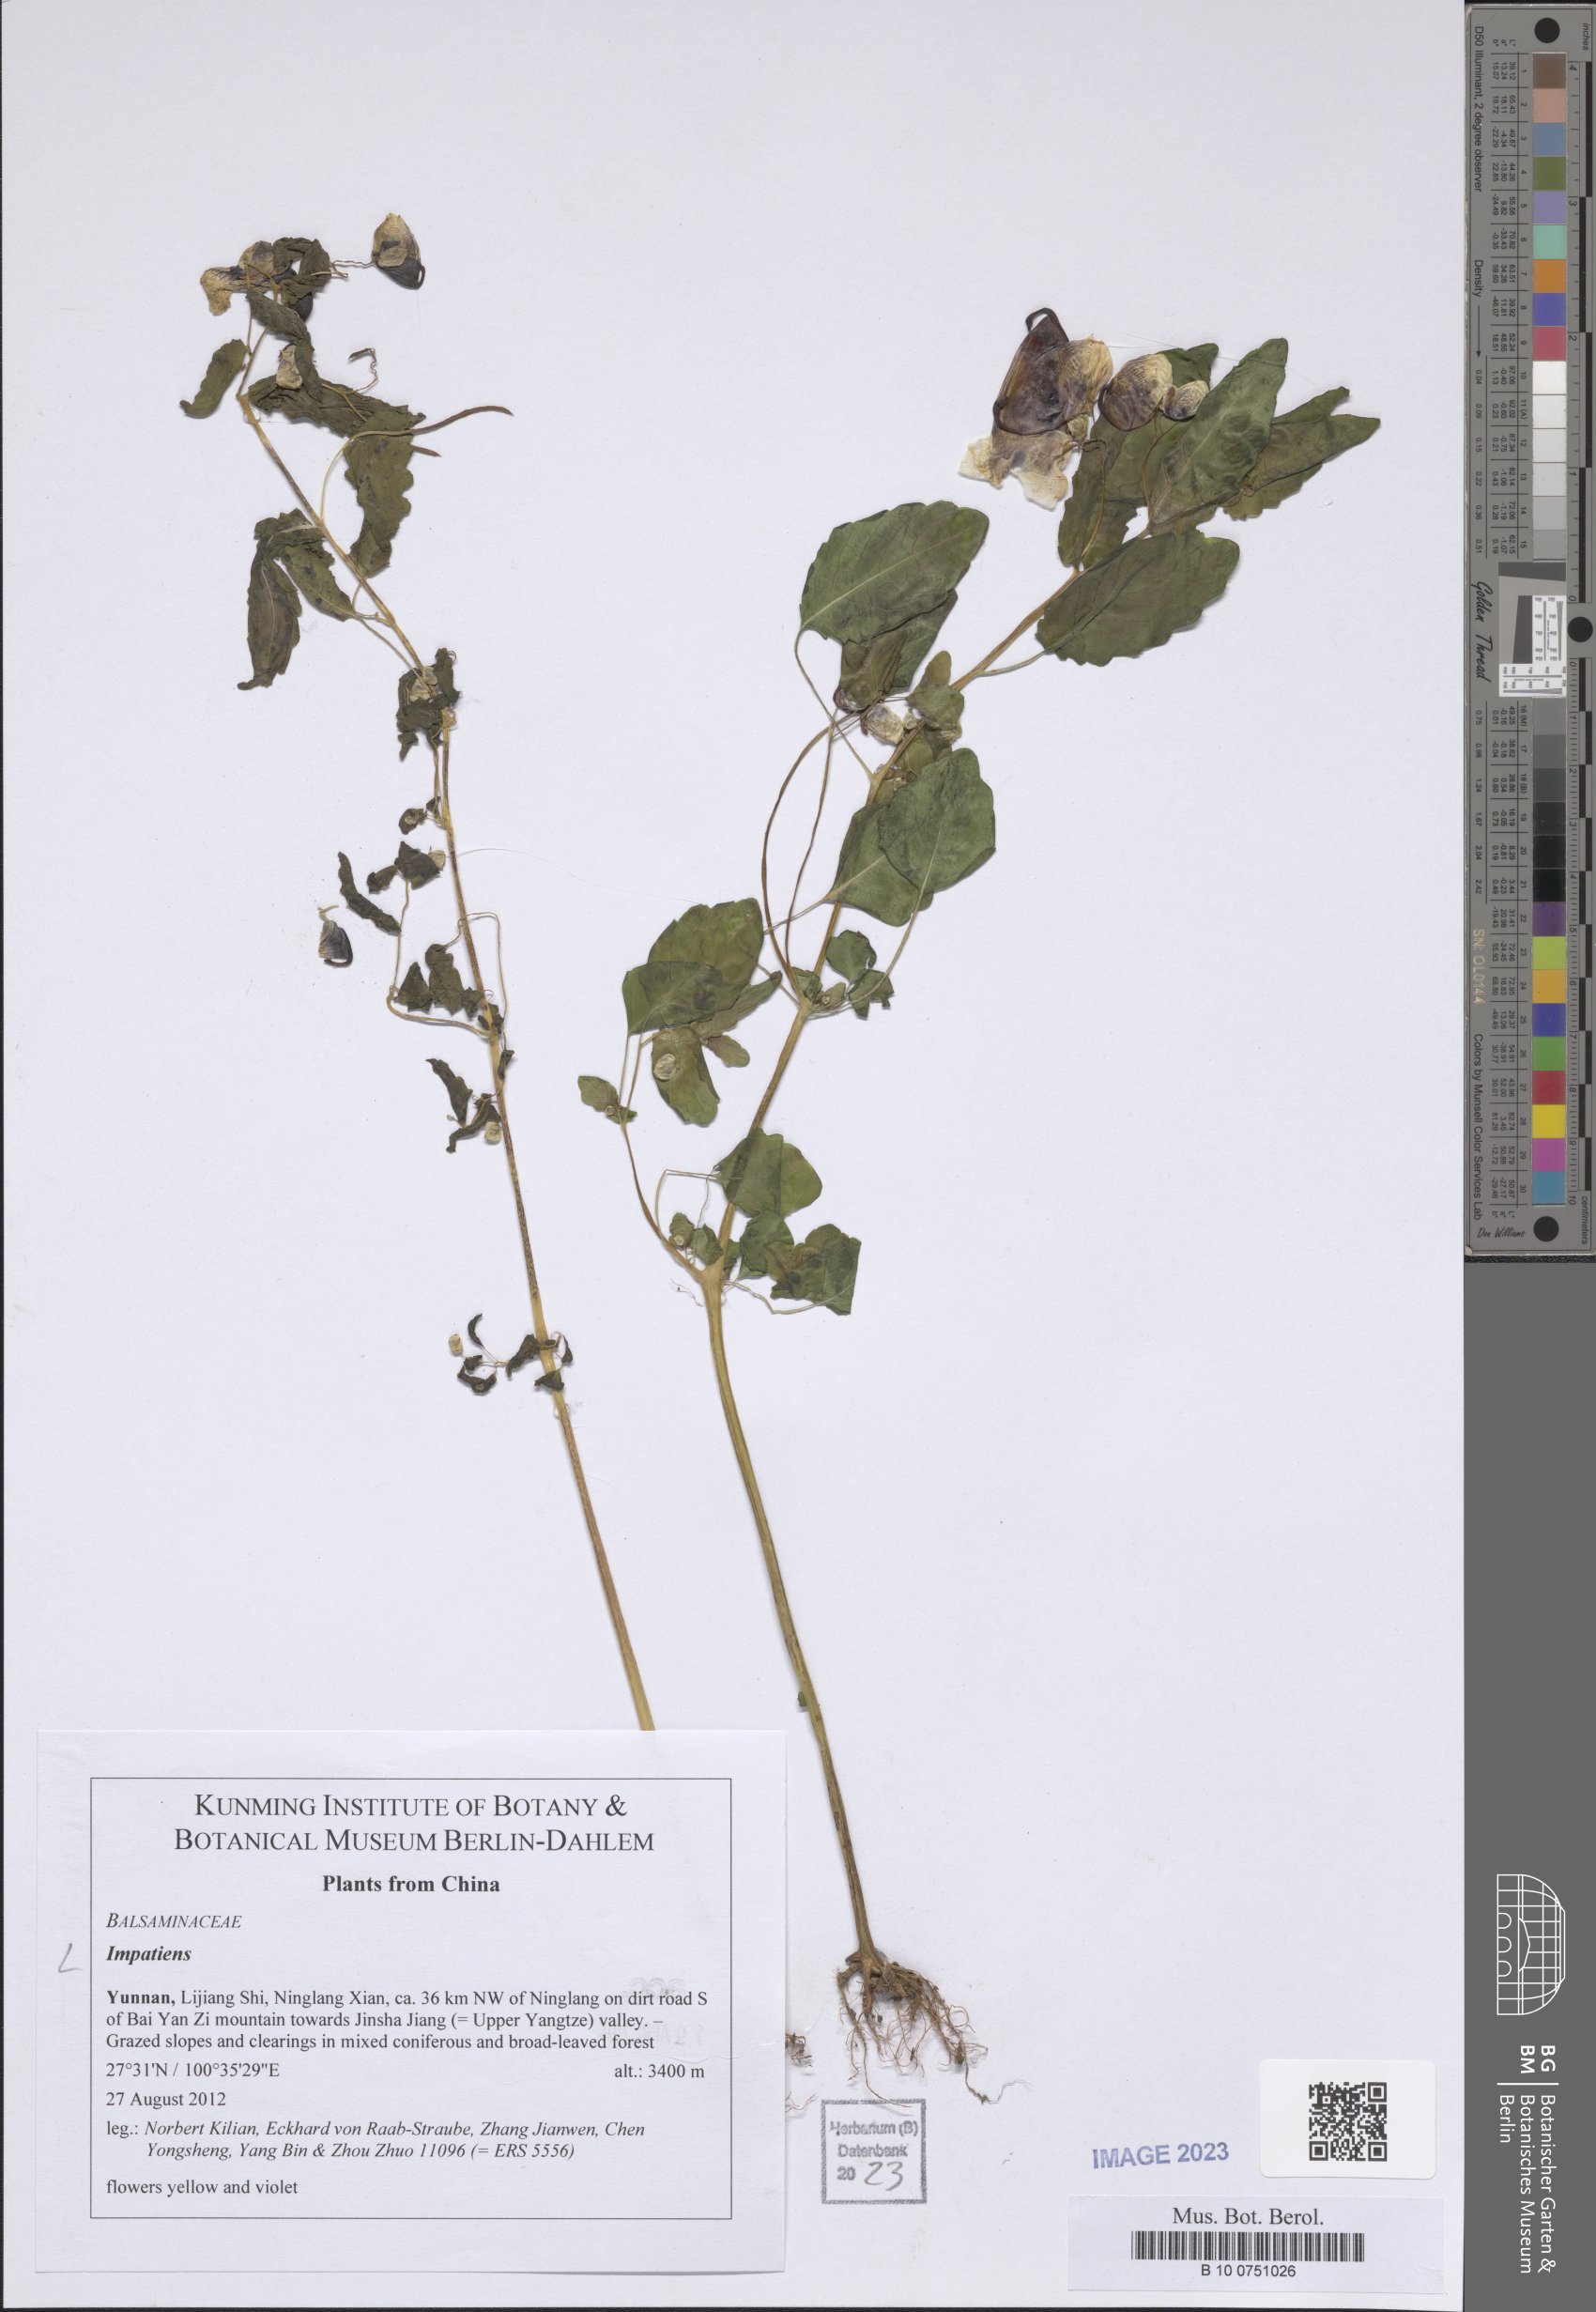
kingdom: Plantae
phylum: Tracheophyta
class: Magnoliopsida
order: Ericales
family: Balsaminaceae
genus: Impatiens
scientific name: Impatiens
